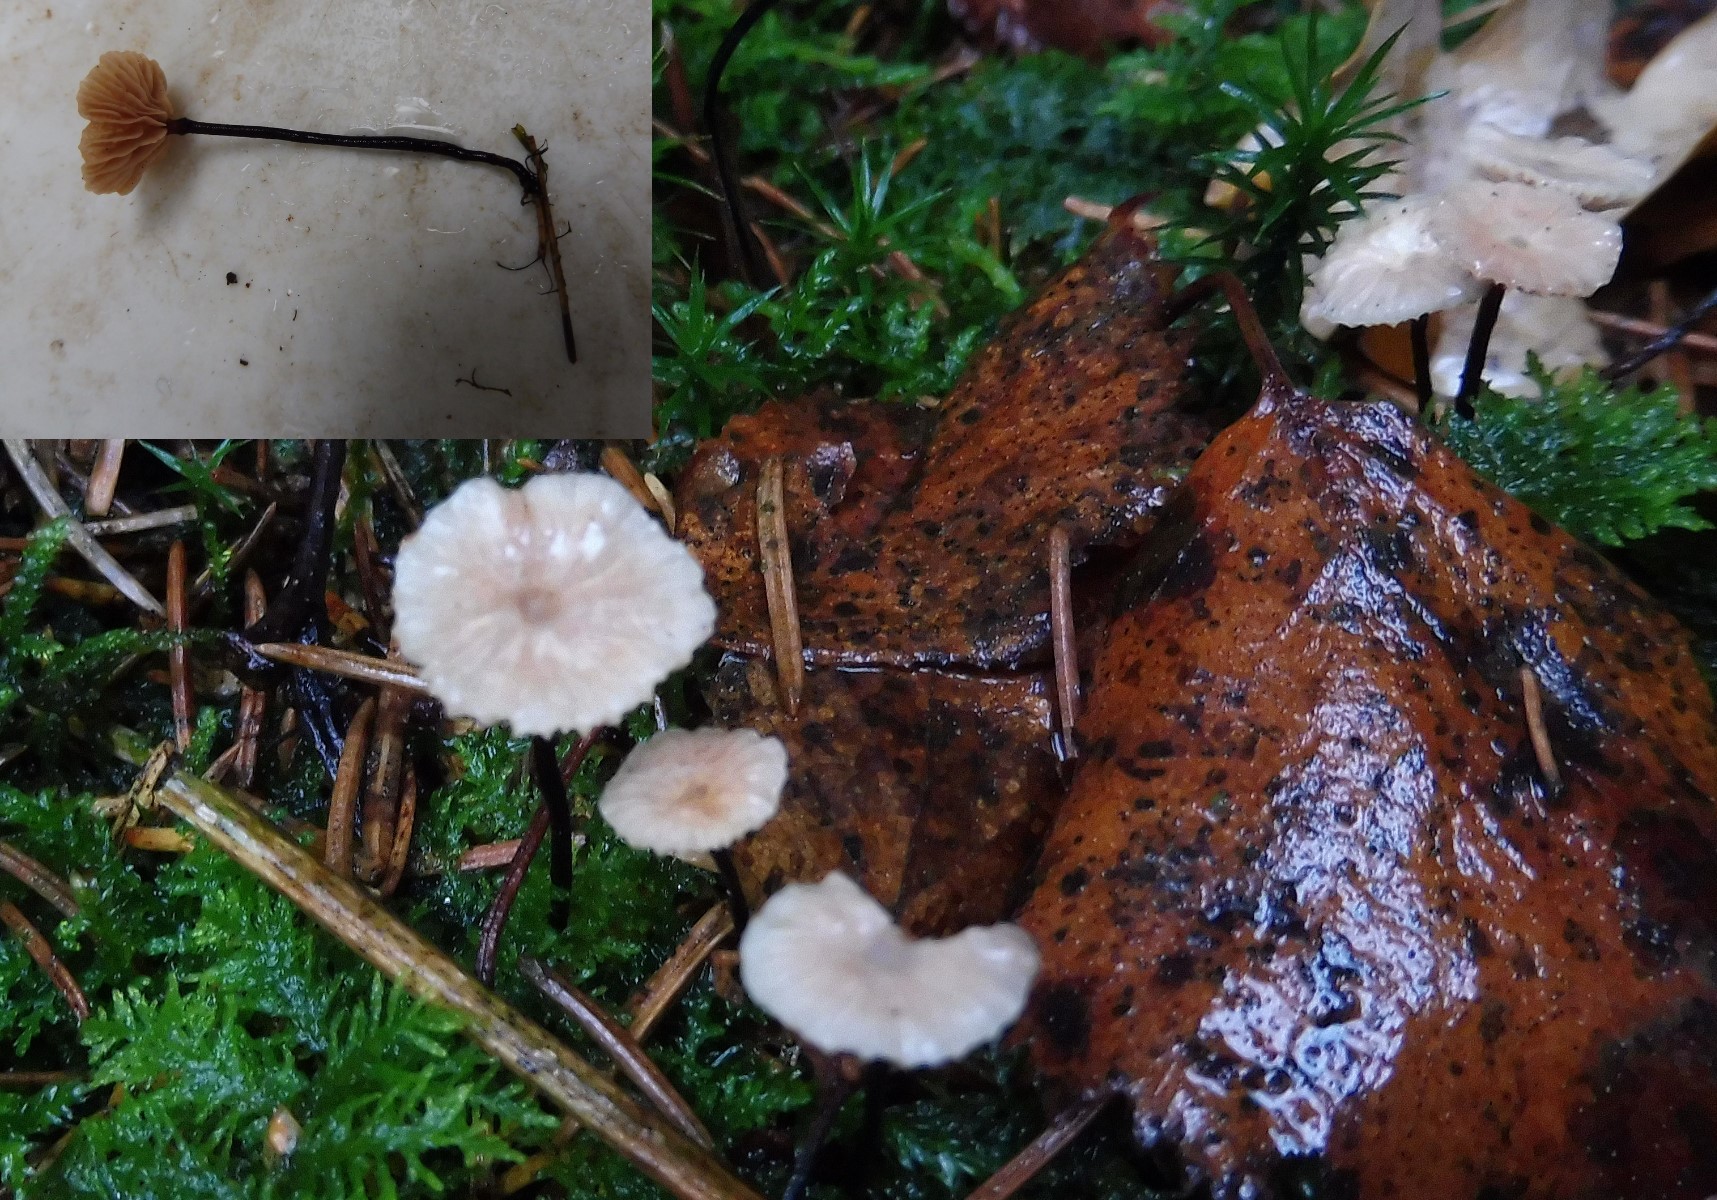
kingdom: Fungi
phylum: Basidiomycota
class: Agaricomycetes
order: Agaricales
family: Omphalotaceae
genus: Paragymnopus
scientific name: Paragymnopus perforans
